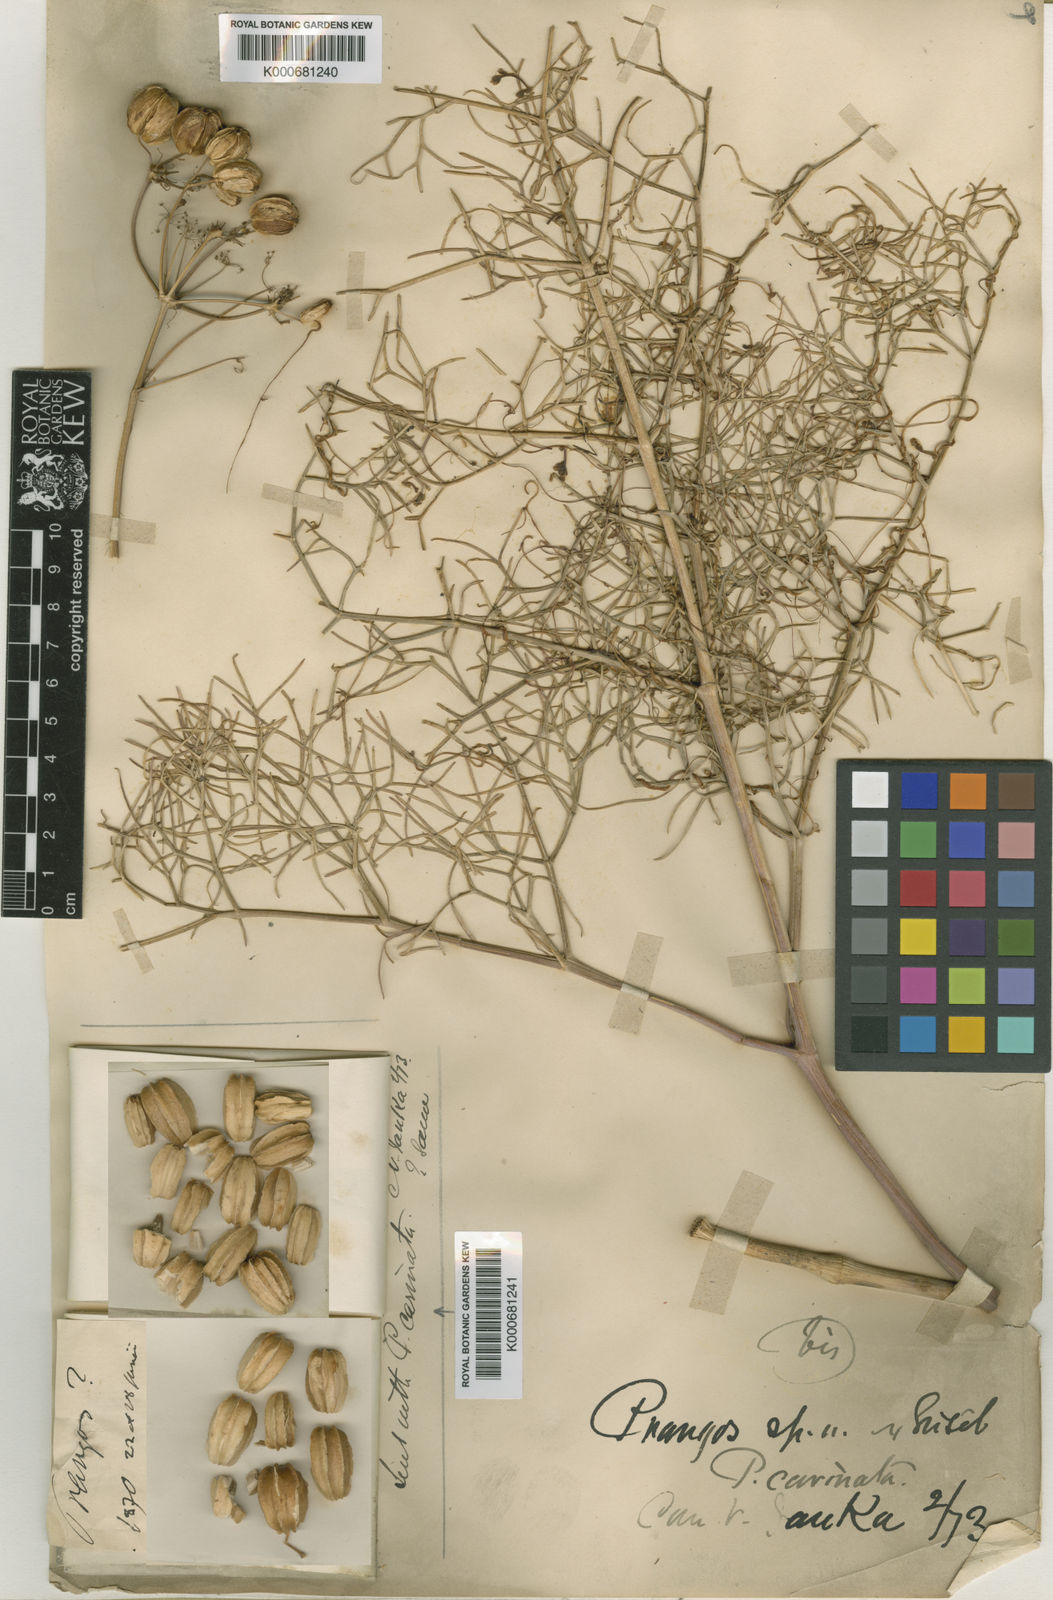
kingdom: Plantae
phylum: Tracheophyta
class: Magnoliopsida
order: Apiales
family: Apiaceae
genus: Prangos
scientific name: Prangos ferulacea
